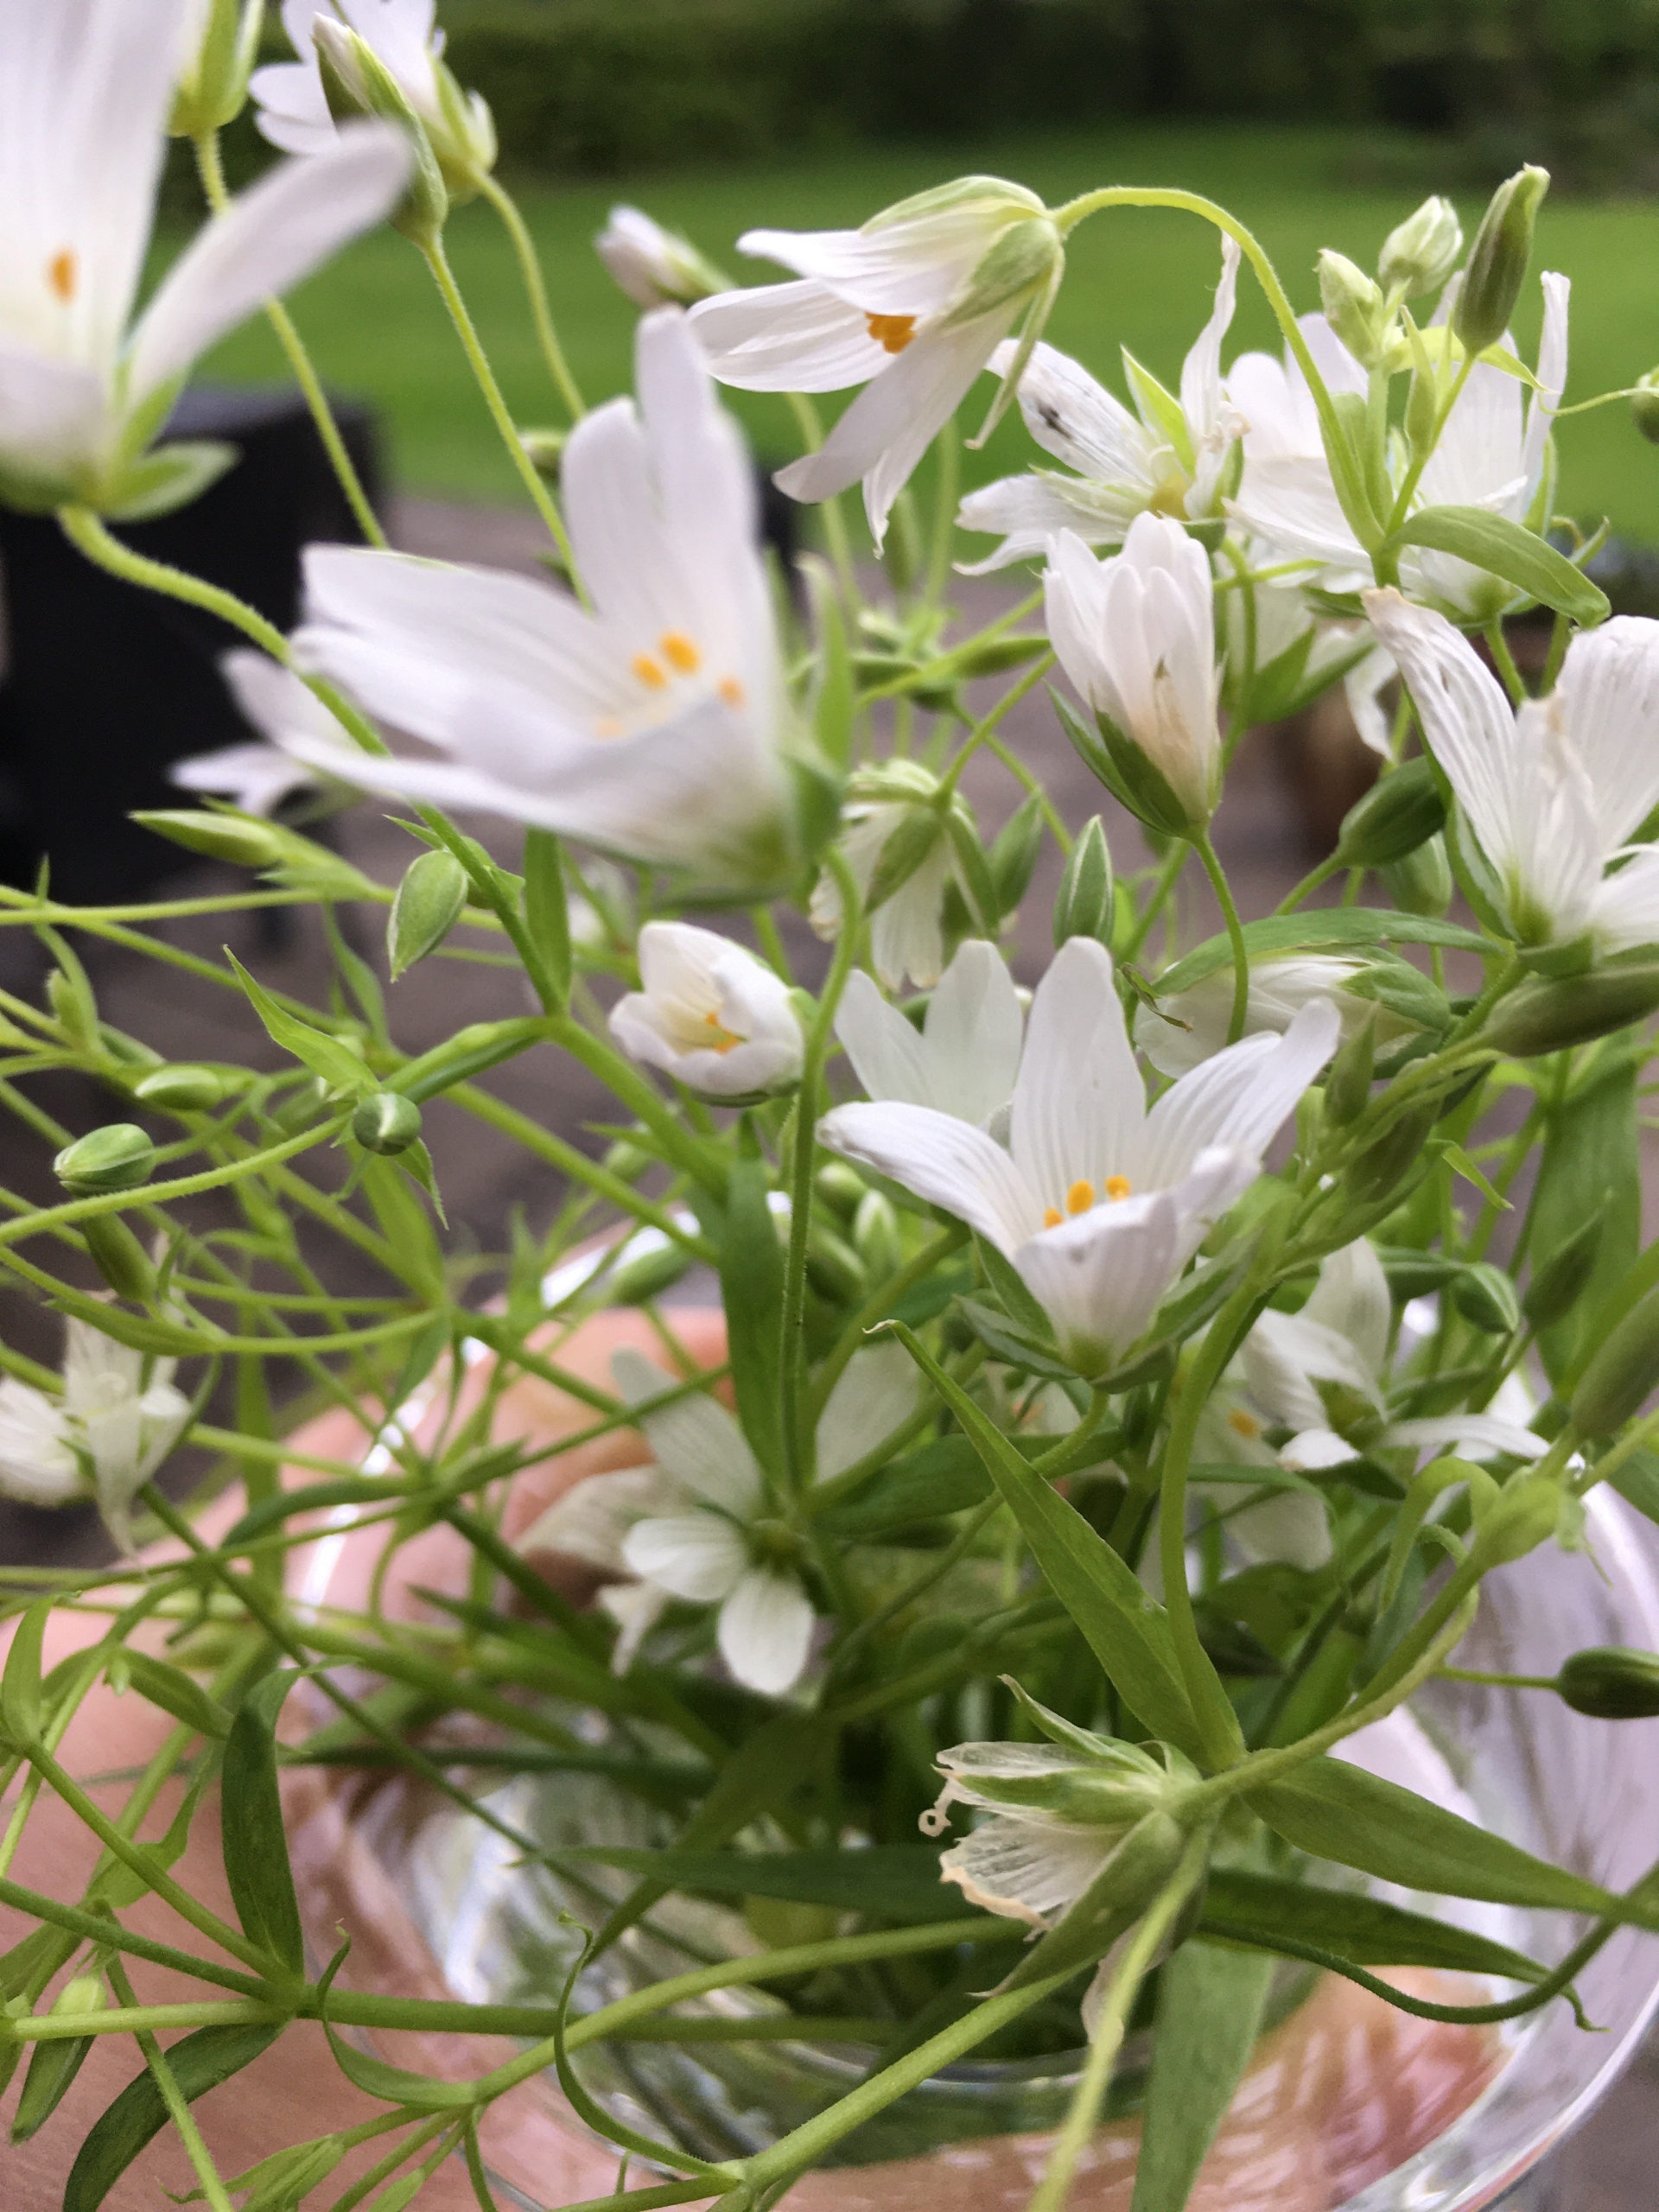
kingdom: Plantae
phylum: Tracheophyta
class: Magnoliopsida
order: Caryophyllales
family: Caryophyllaceae
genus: Rabelera
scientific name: Rabelera holostea
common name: Stor fladstjerne
